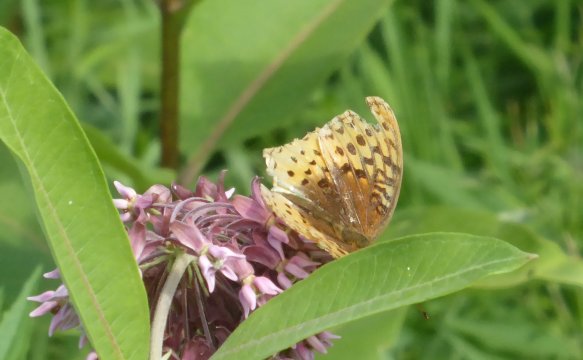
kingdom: Animalia
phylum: Arthropoda
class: Insecta
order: Lepidoptera
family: Nymphalidae
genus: Speyeria
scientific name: Speyeria cybele
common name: Great Spangled Fritillary
